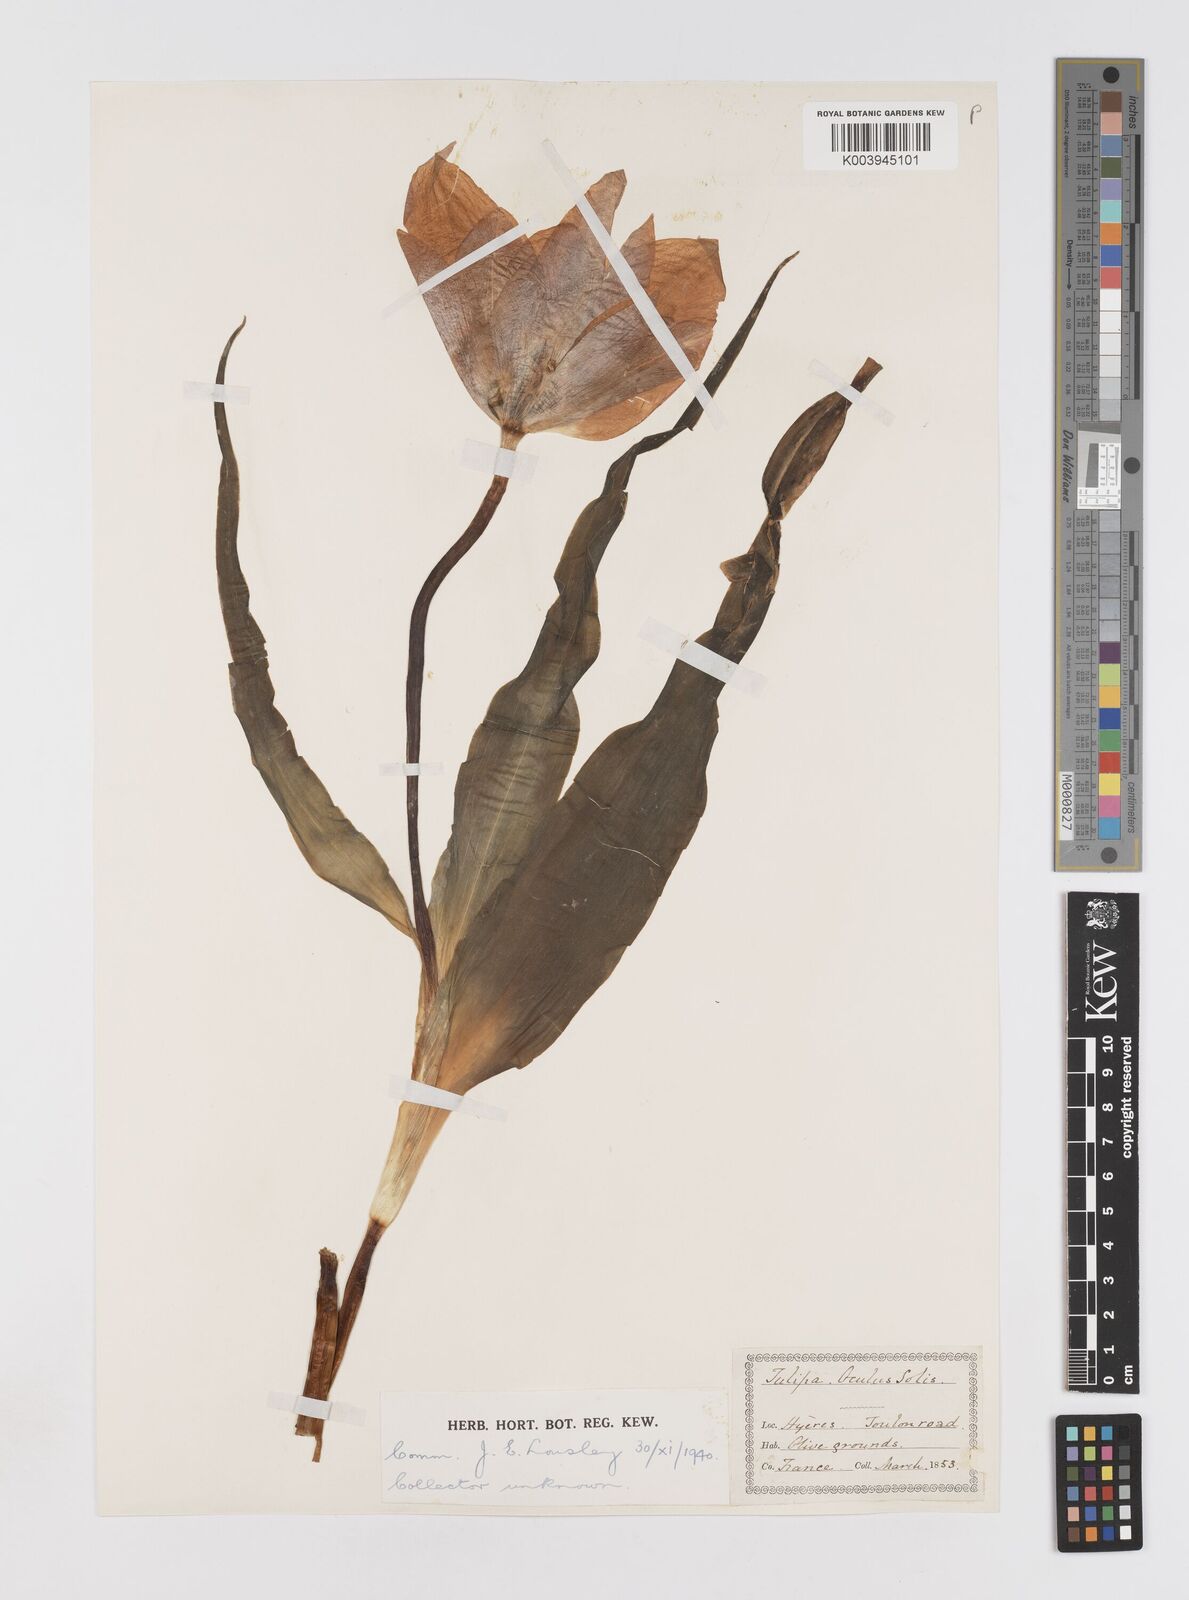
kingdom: Plantae
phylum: Tracheophyta
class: Liliopsida
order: Liliales
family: Liliaceae
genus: Tulipa
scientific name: Tulipa
